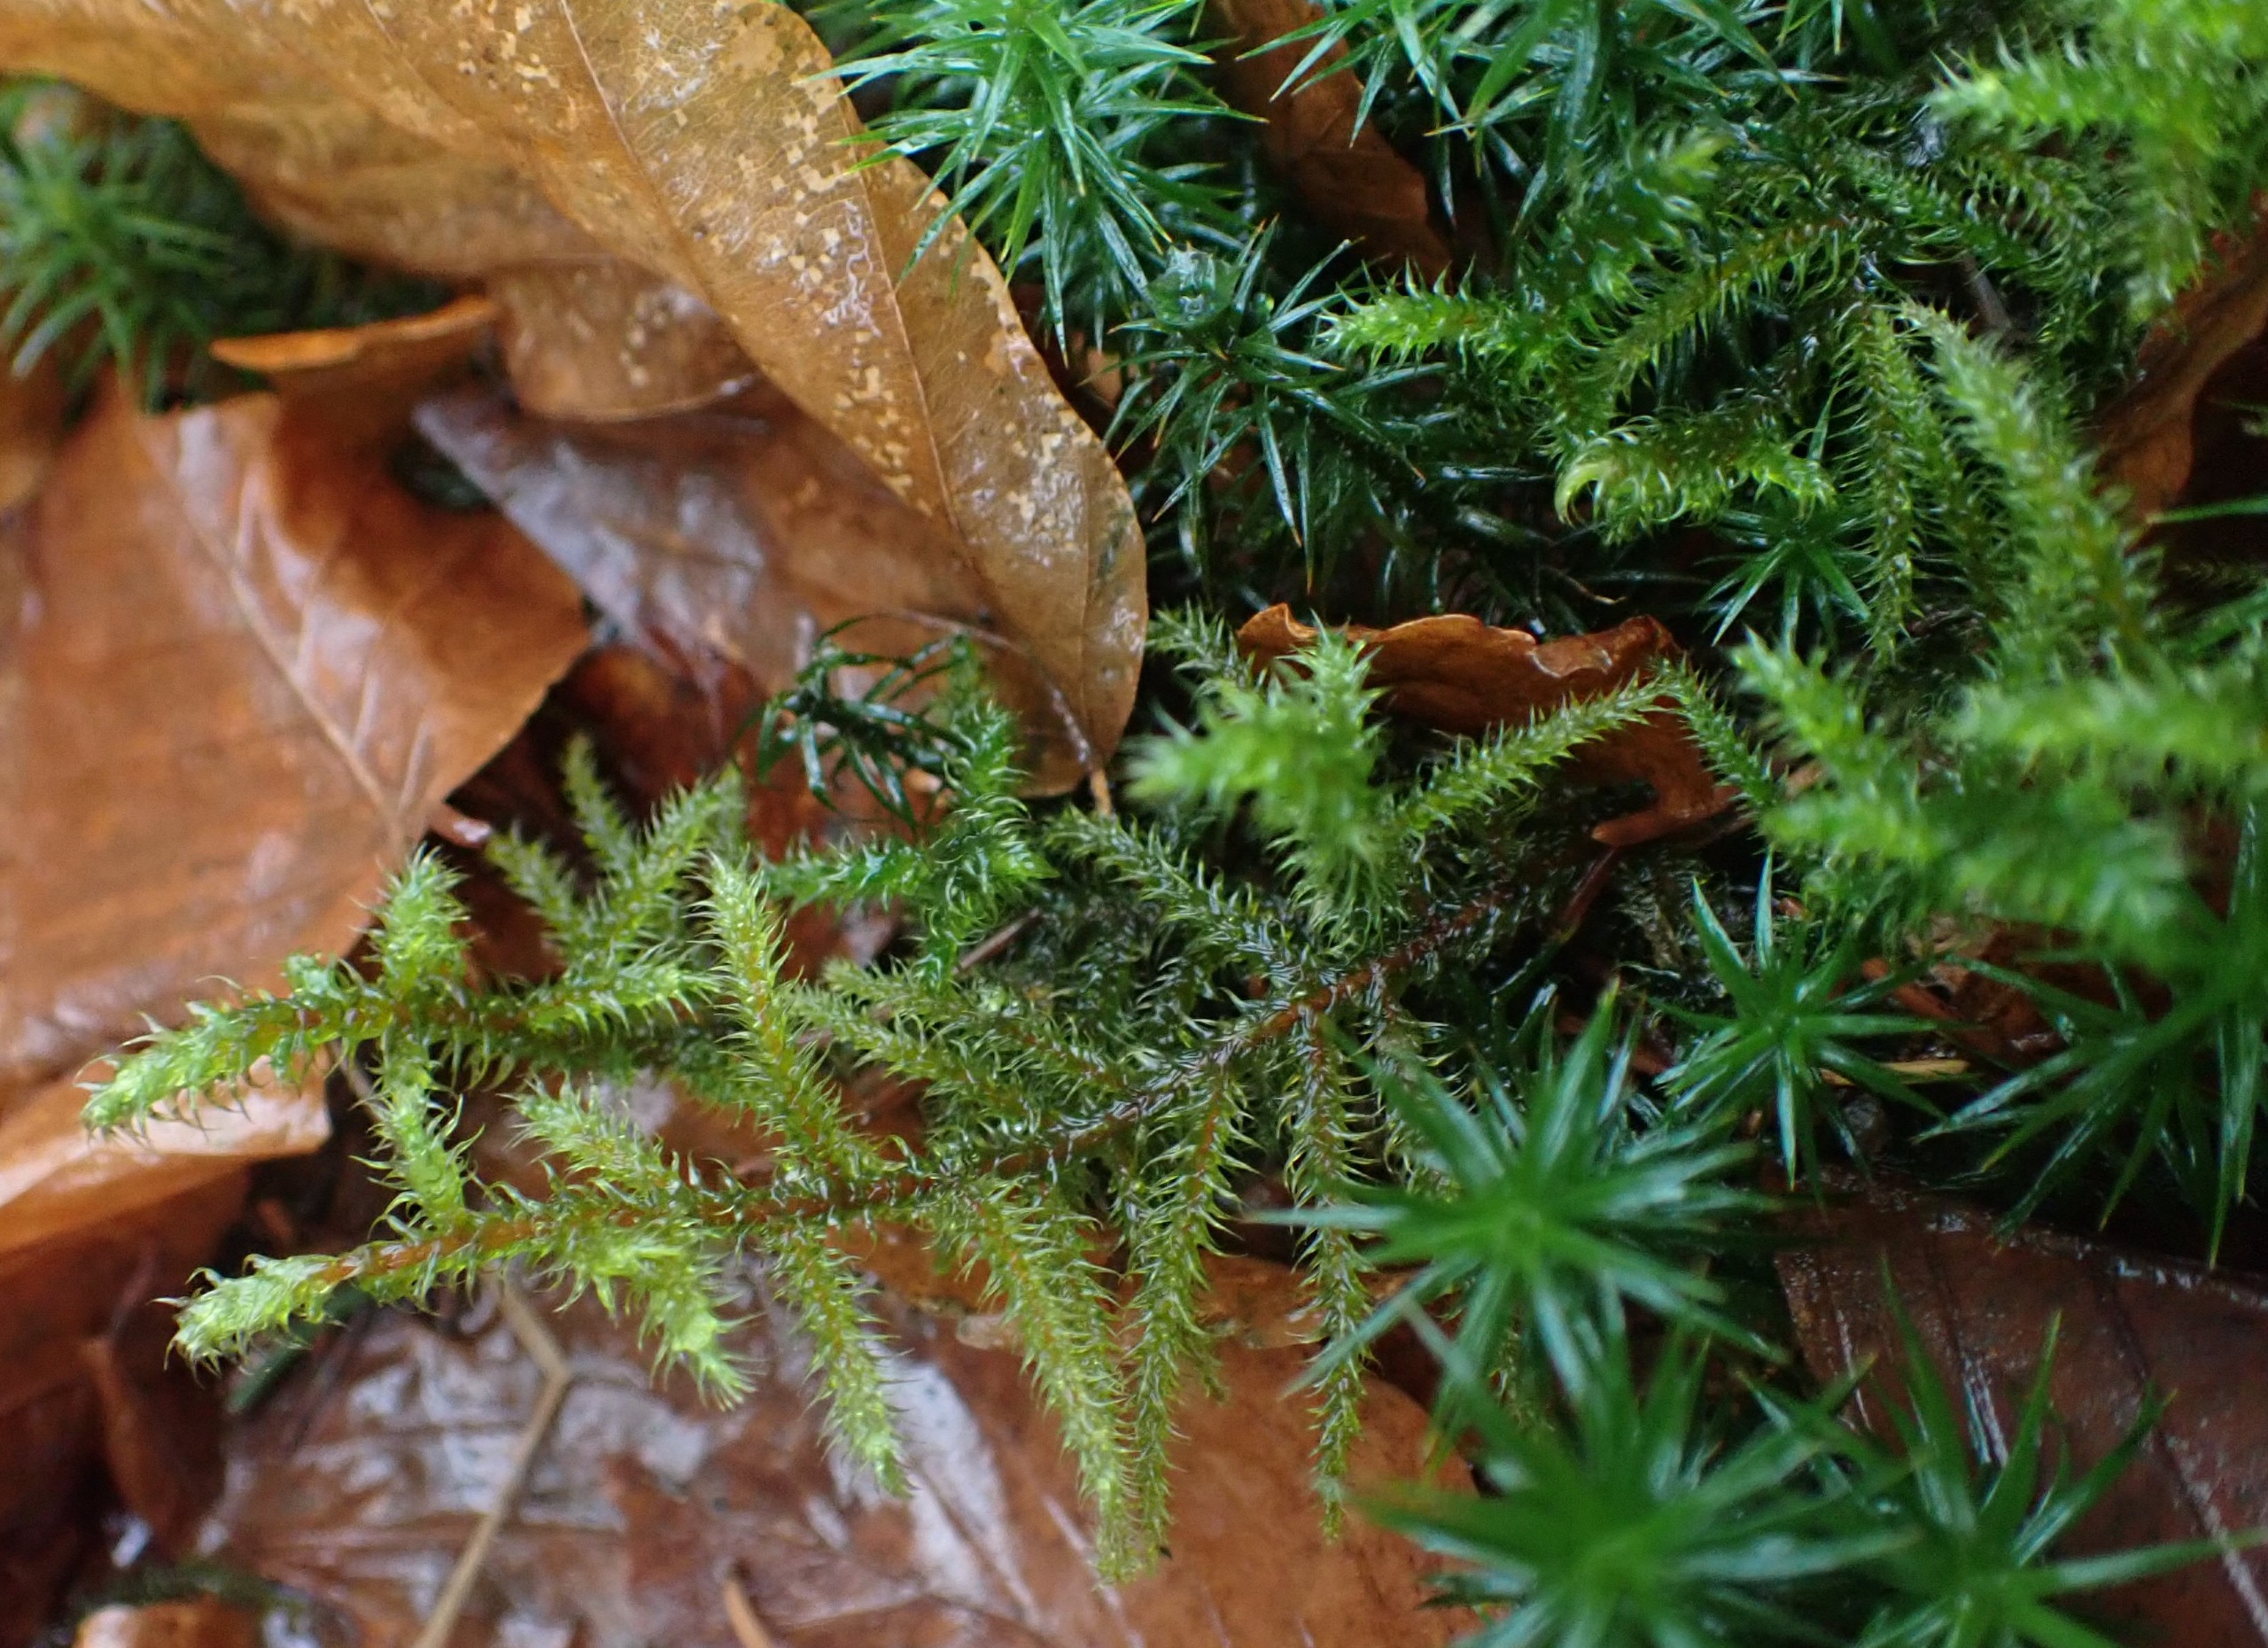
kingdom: Plantae
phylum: Bryophyta
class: Bryopsida
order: Hypnales
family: Hylocomiaceae
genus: Rhytidiadelphus
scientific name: Rhytidiadelphus loreus
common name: Ulvefod-kransemos
